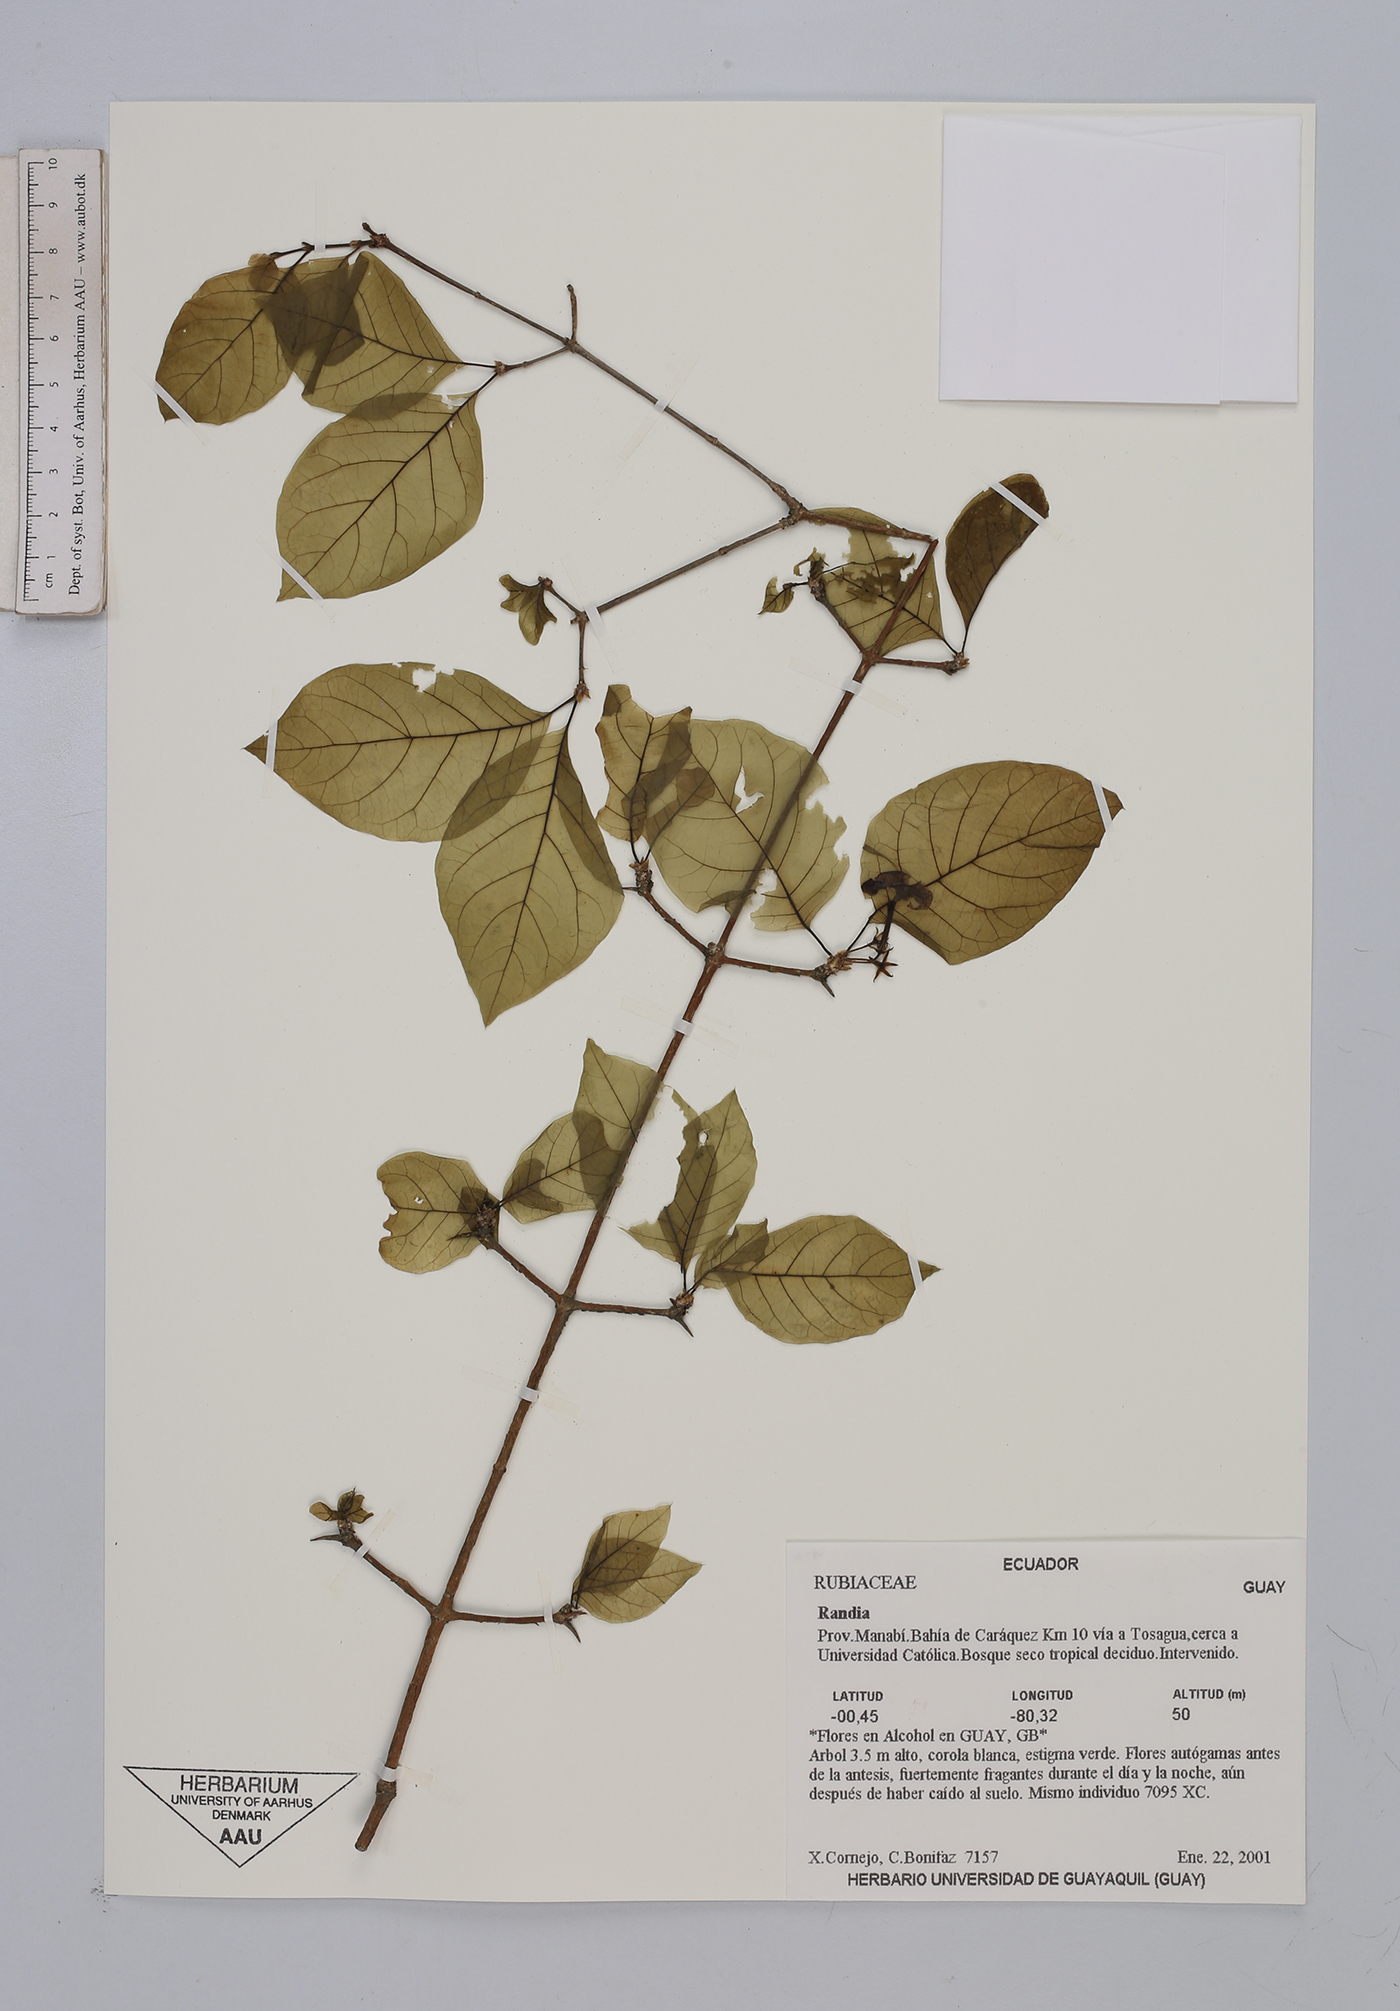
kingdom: Plantae
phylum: Tracheophyta
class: Magnoliopsida
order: Gentianales
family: Rubiaceae
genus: Randia
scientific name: Randia
